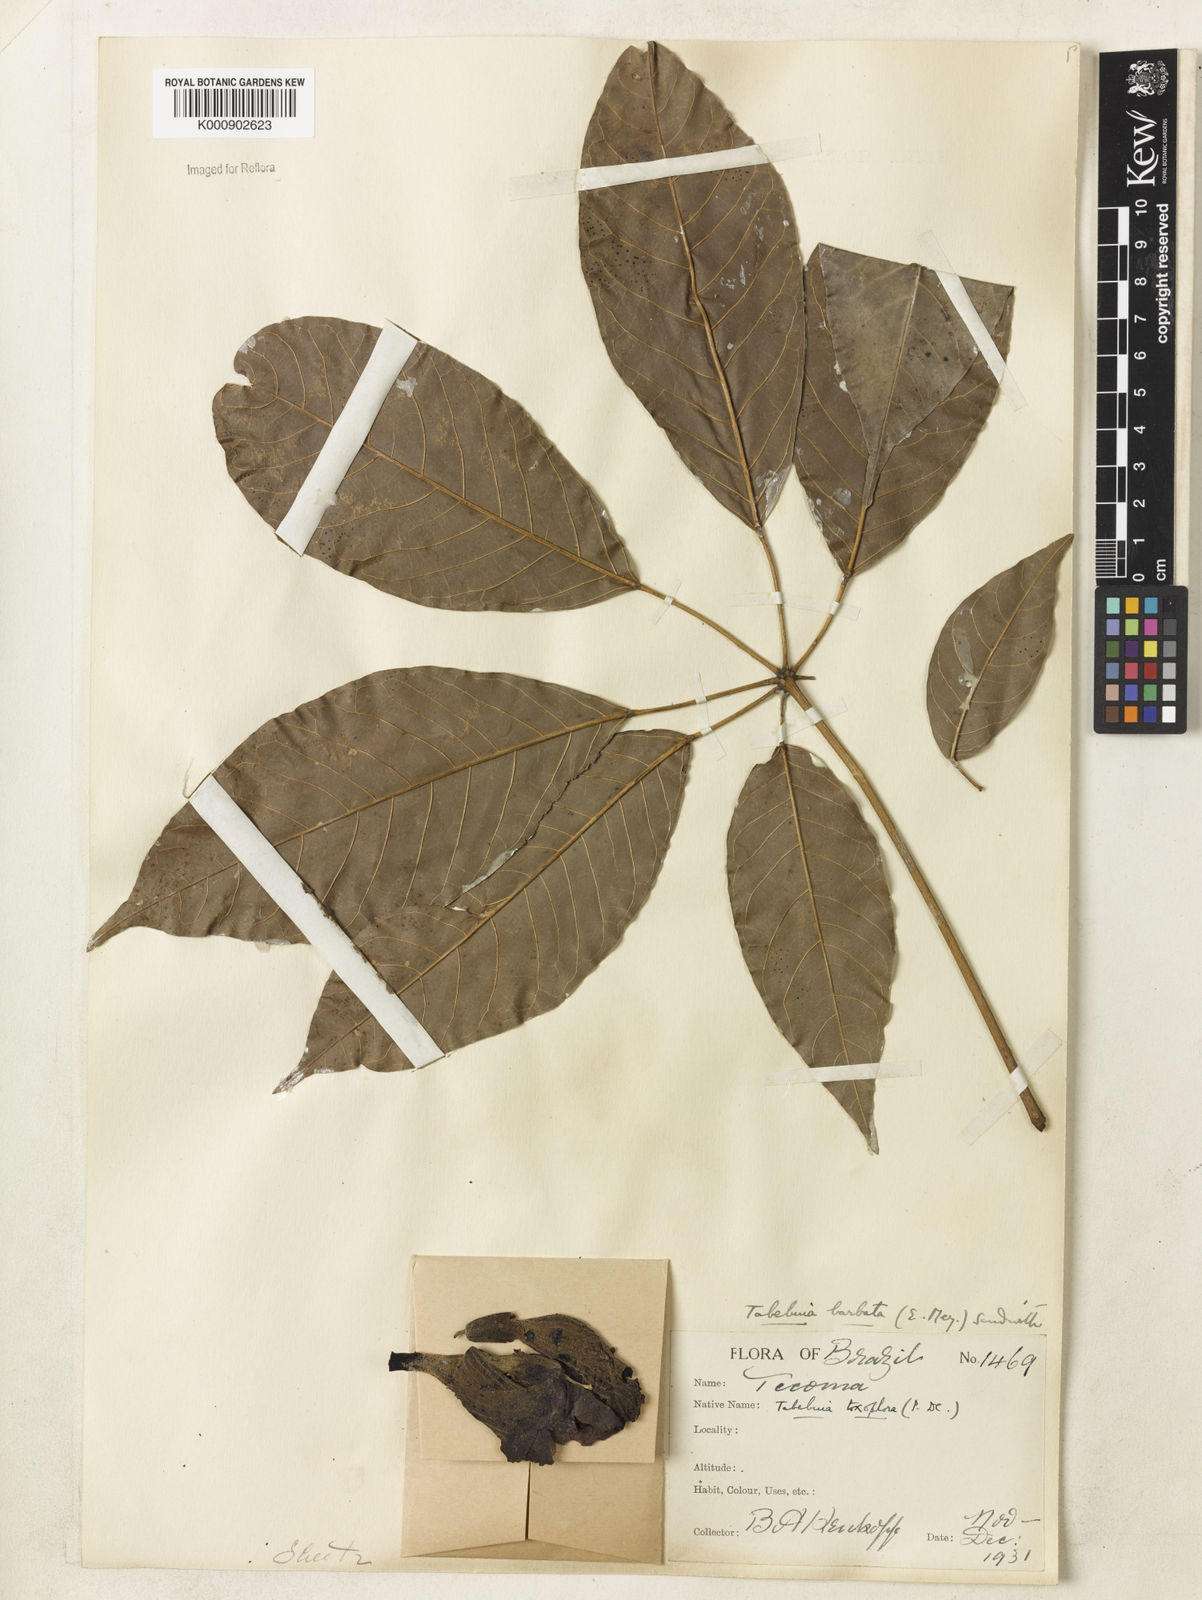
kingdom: Plantae
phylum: Tracheophyta
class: Magnoliopsida
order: Lamiales
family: Bignoniaceae
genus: Handroanthus
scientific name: Handroanthus barbatus
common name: Trumpet trees
